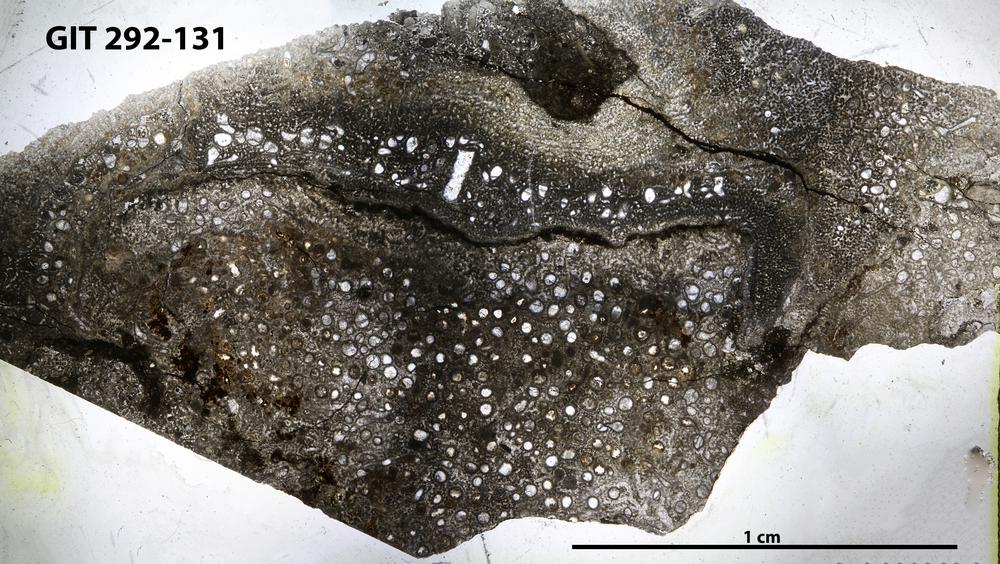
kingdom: Animalia
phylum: Porifera
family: Pseudolabechiidae
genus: Vikingia
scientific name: Vikingia
